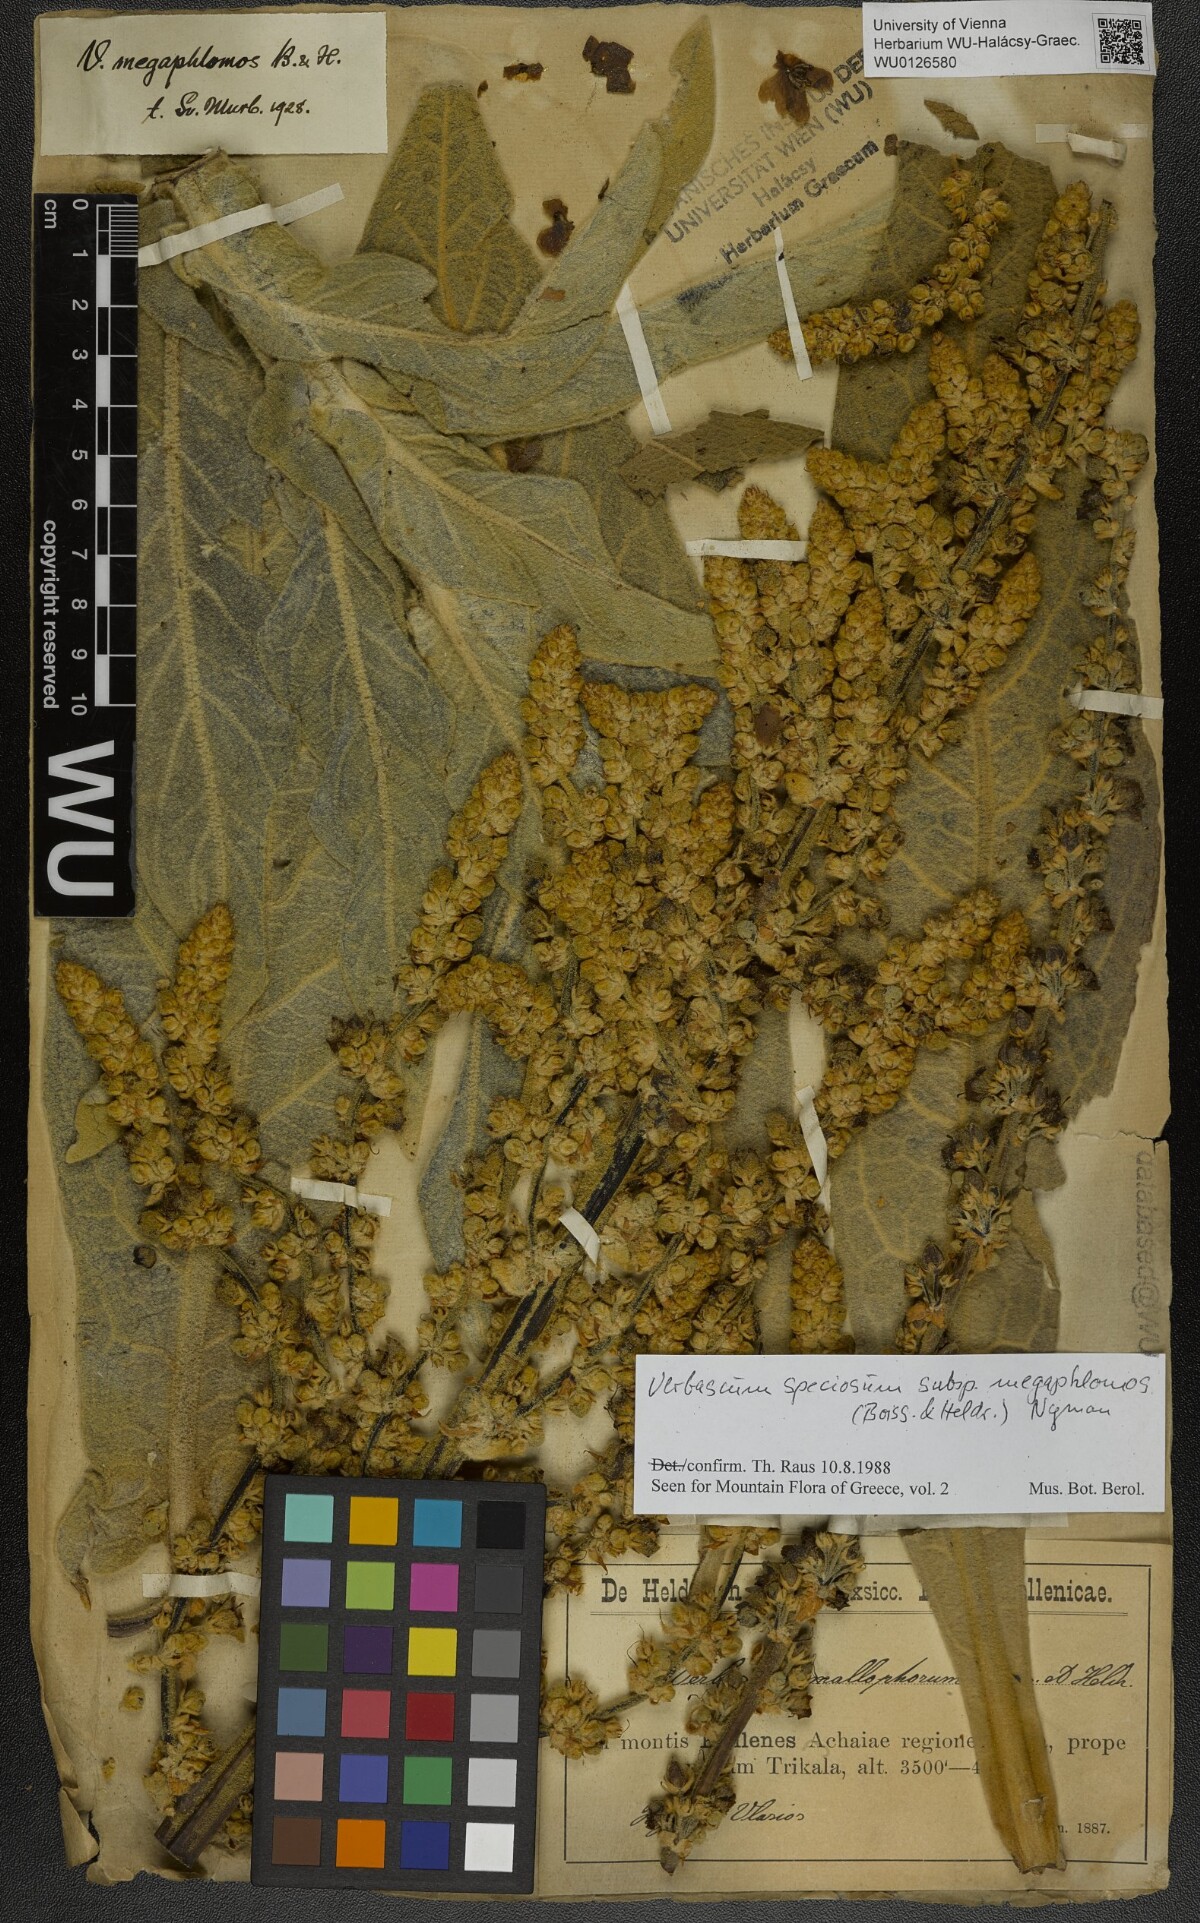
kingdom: Plantae
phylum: Tracheophyta
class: Magnoliopsida
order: Lamiales
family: Scrophulariaceae
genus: Verbascum
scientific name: Verbascum speciosum
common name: Hungarian mullein
